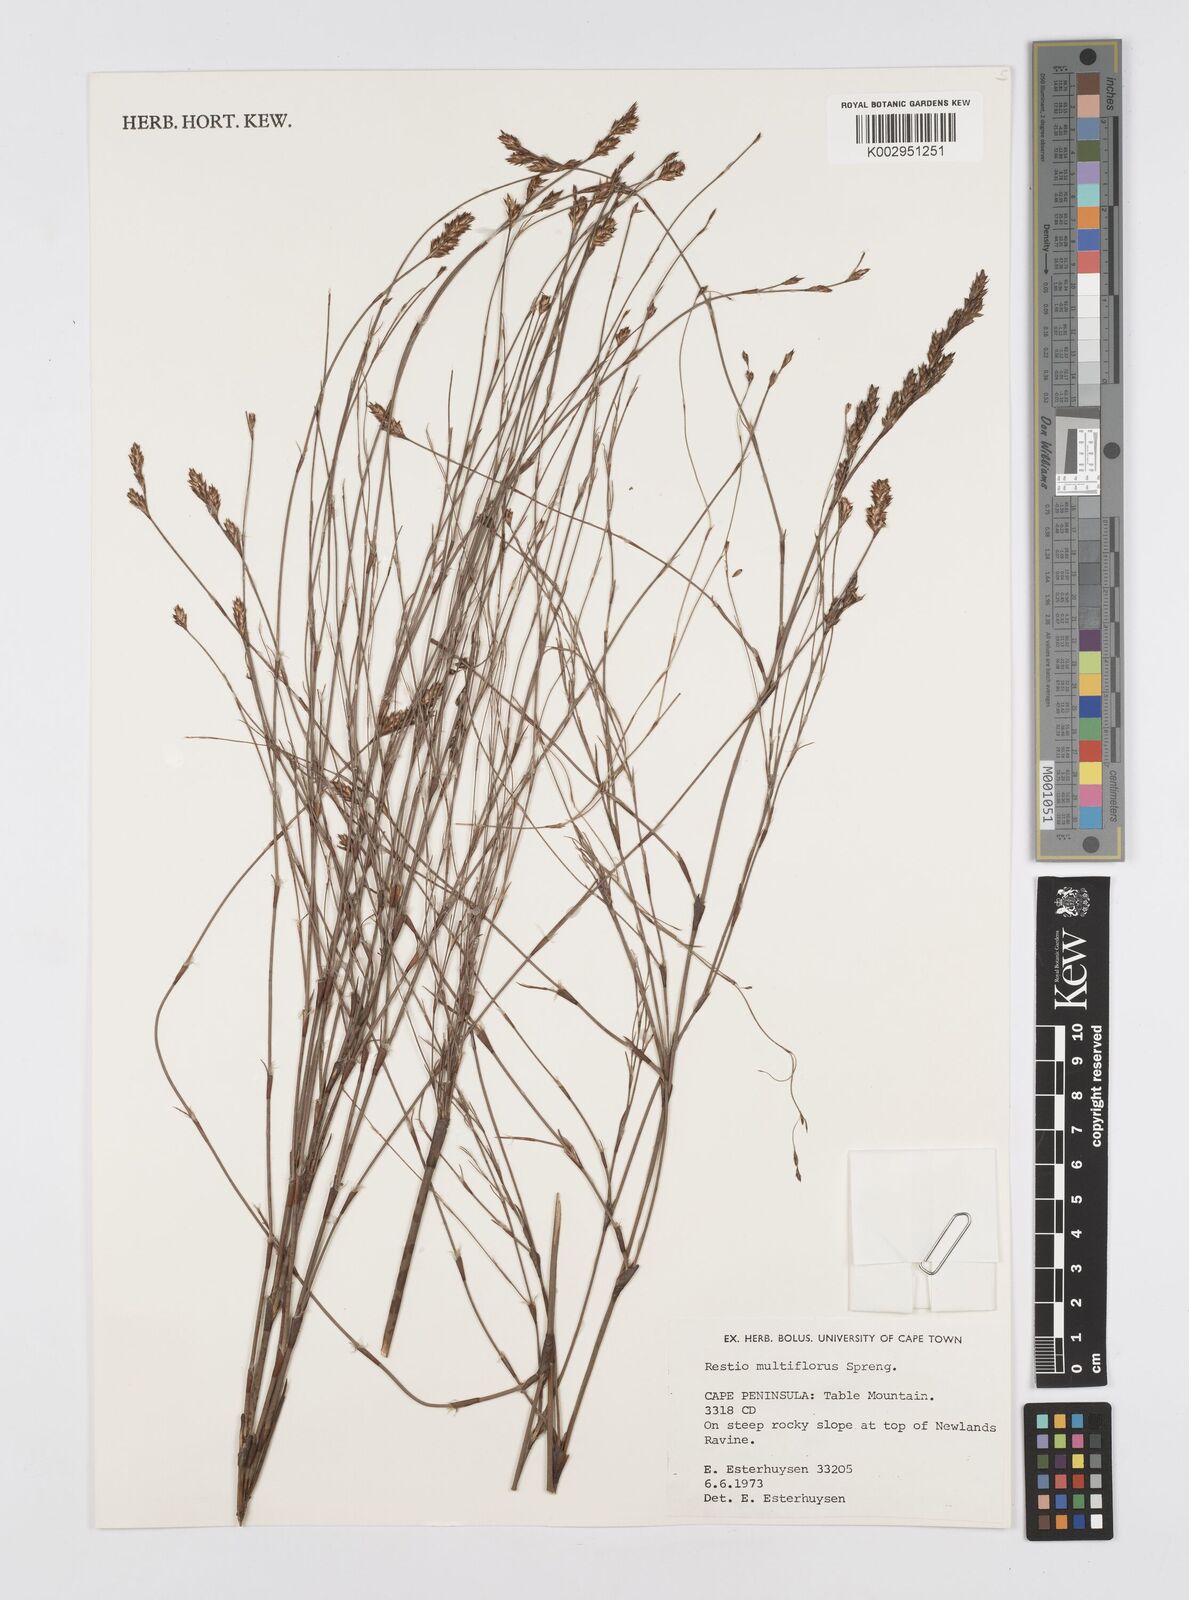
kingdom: Plantae
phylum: Tracheophyta
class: Liliopsida
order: Poales
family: Restionaceae
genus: Restio
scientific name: Restio multiflorus
